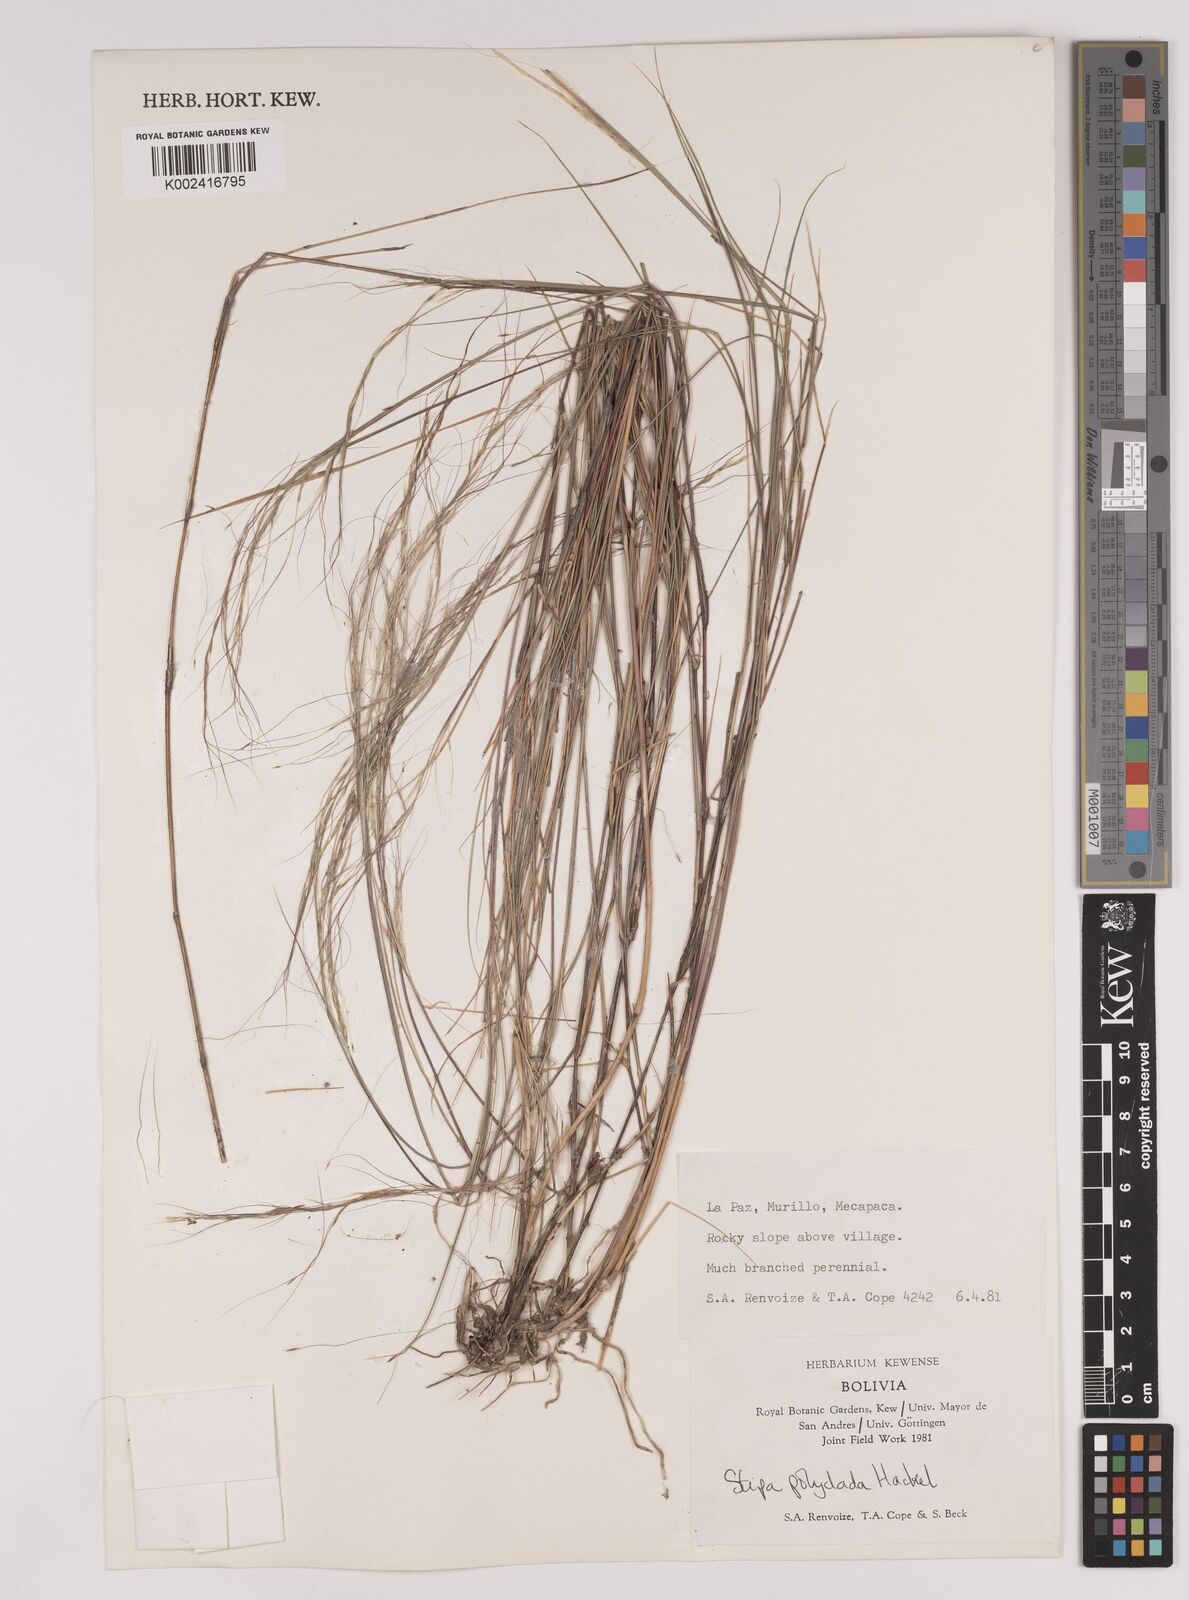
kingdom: Plantae
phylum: Tracheophyta
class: Liliopsida
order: Poales
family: Poaceae
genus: Stipa
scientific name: Stipa illimanica
